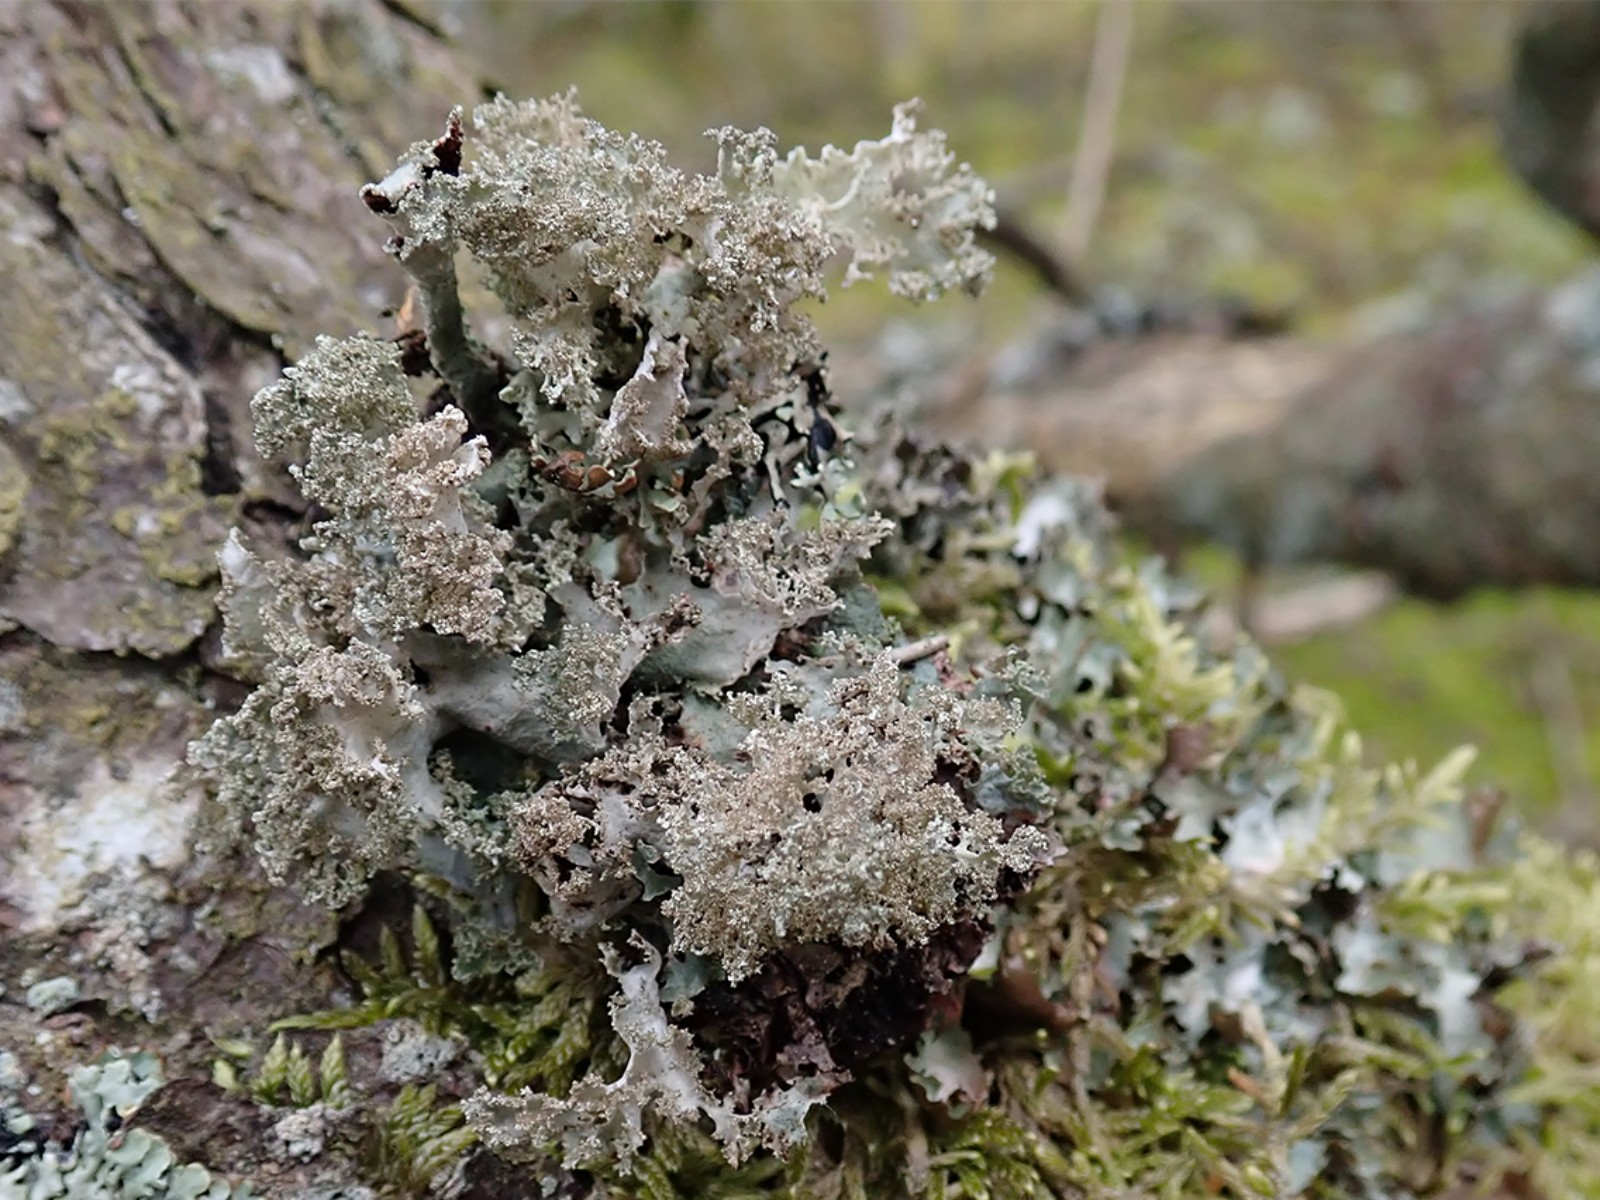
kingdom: Fungi
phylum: Ascomycota
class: Lecanoromycetes
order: Lecanorales
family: Parmeliaceae
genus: Platismatia
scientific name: Platismatia glauca
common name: blågrå papirlav
